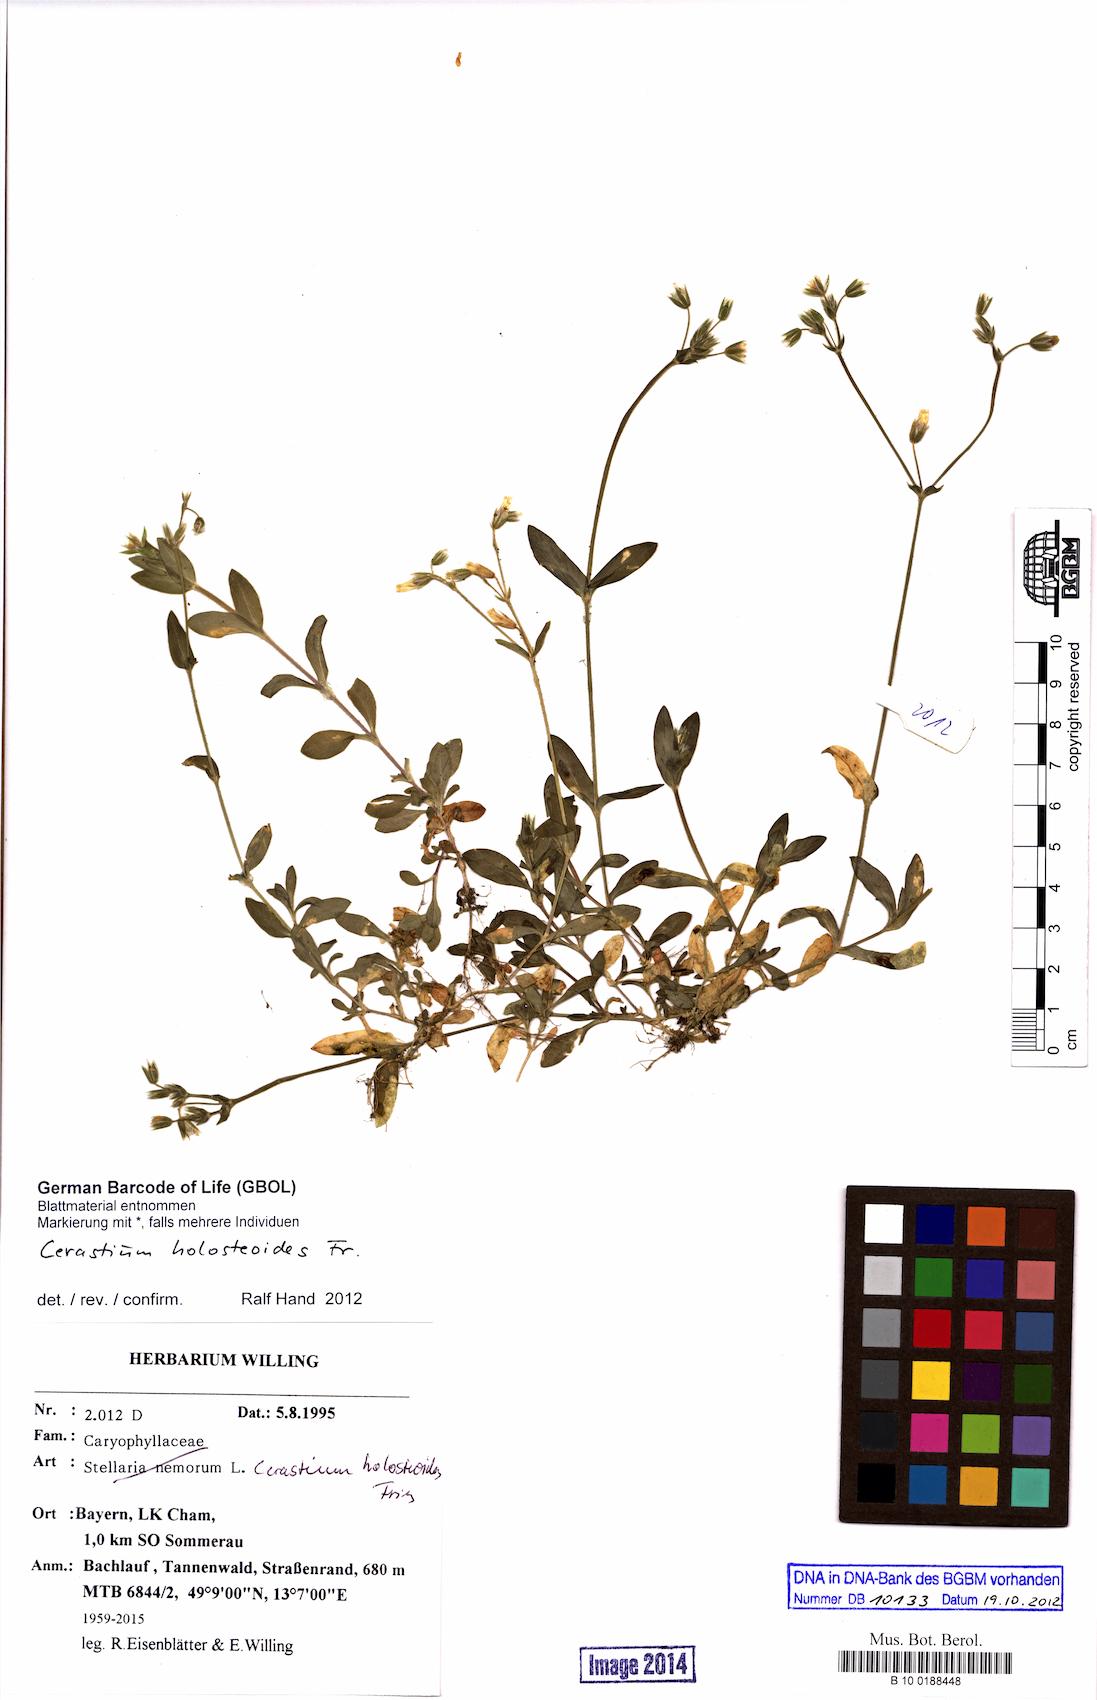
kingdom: Plantae
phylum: Tracheophyta
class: Magnoliopsida
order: Caryophyllales
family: Caryophyllaceae
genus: Cerastium
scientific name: Cerastium holosteoides
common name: Big chickweed
